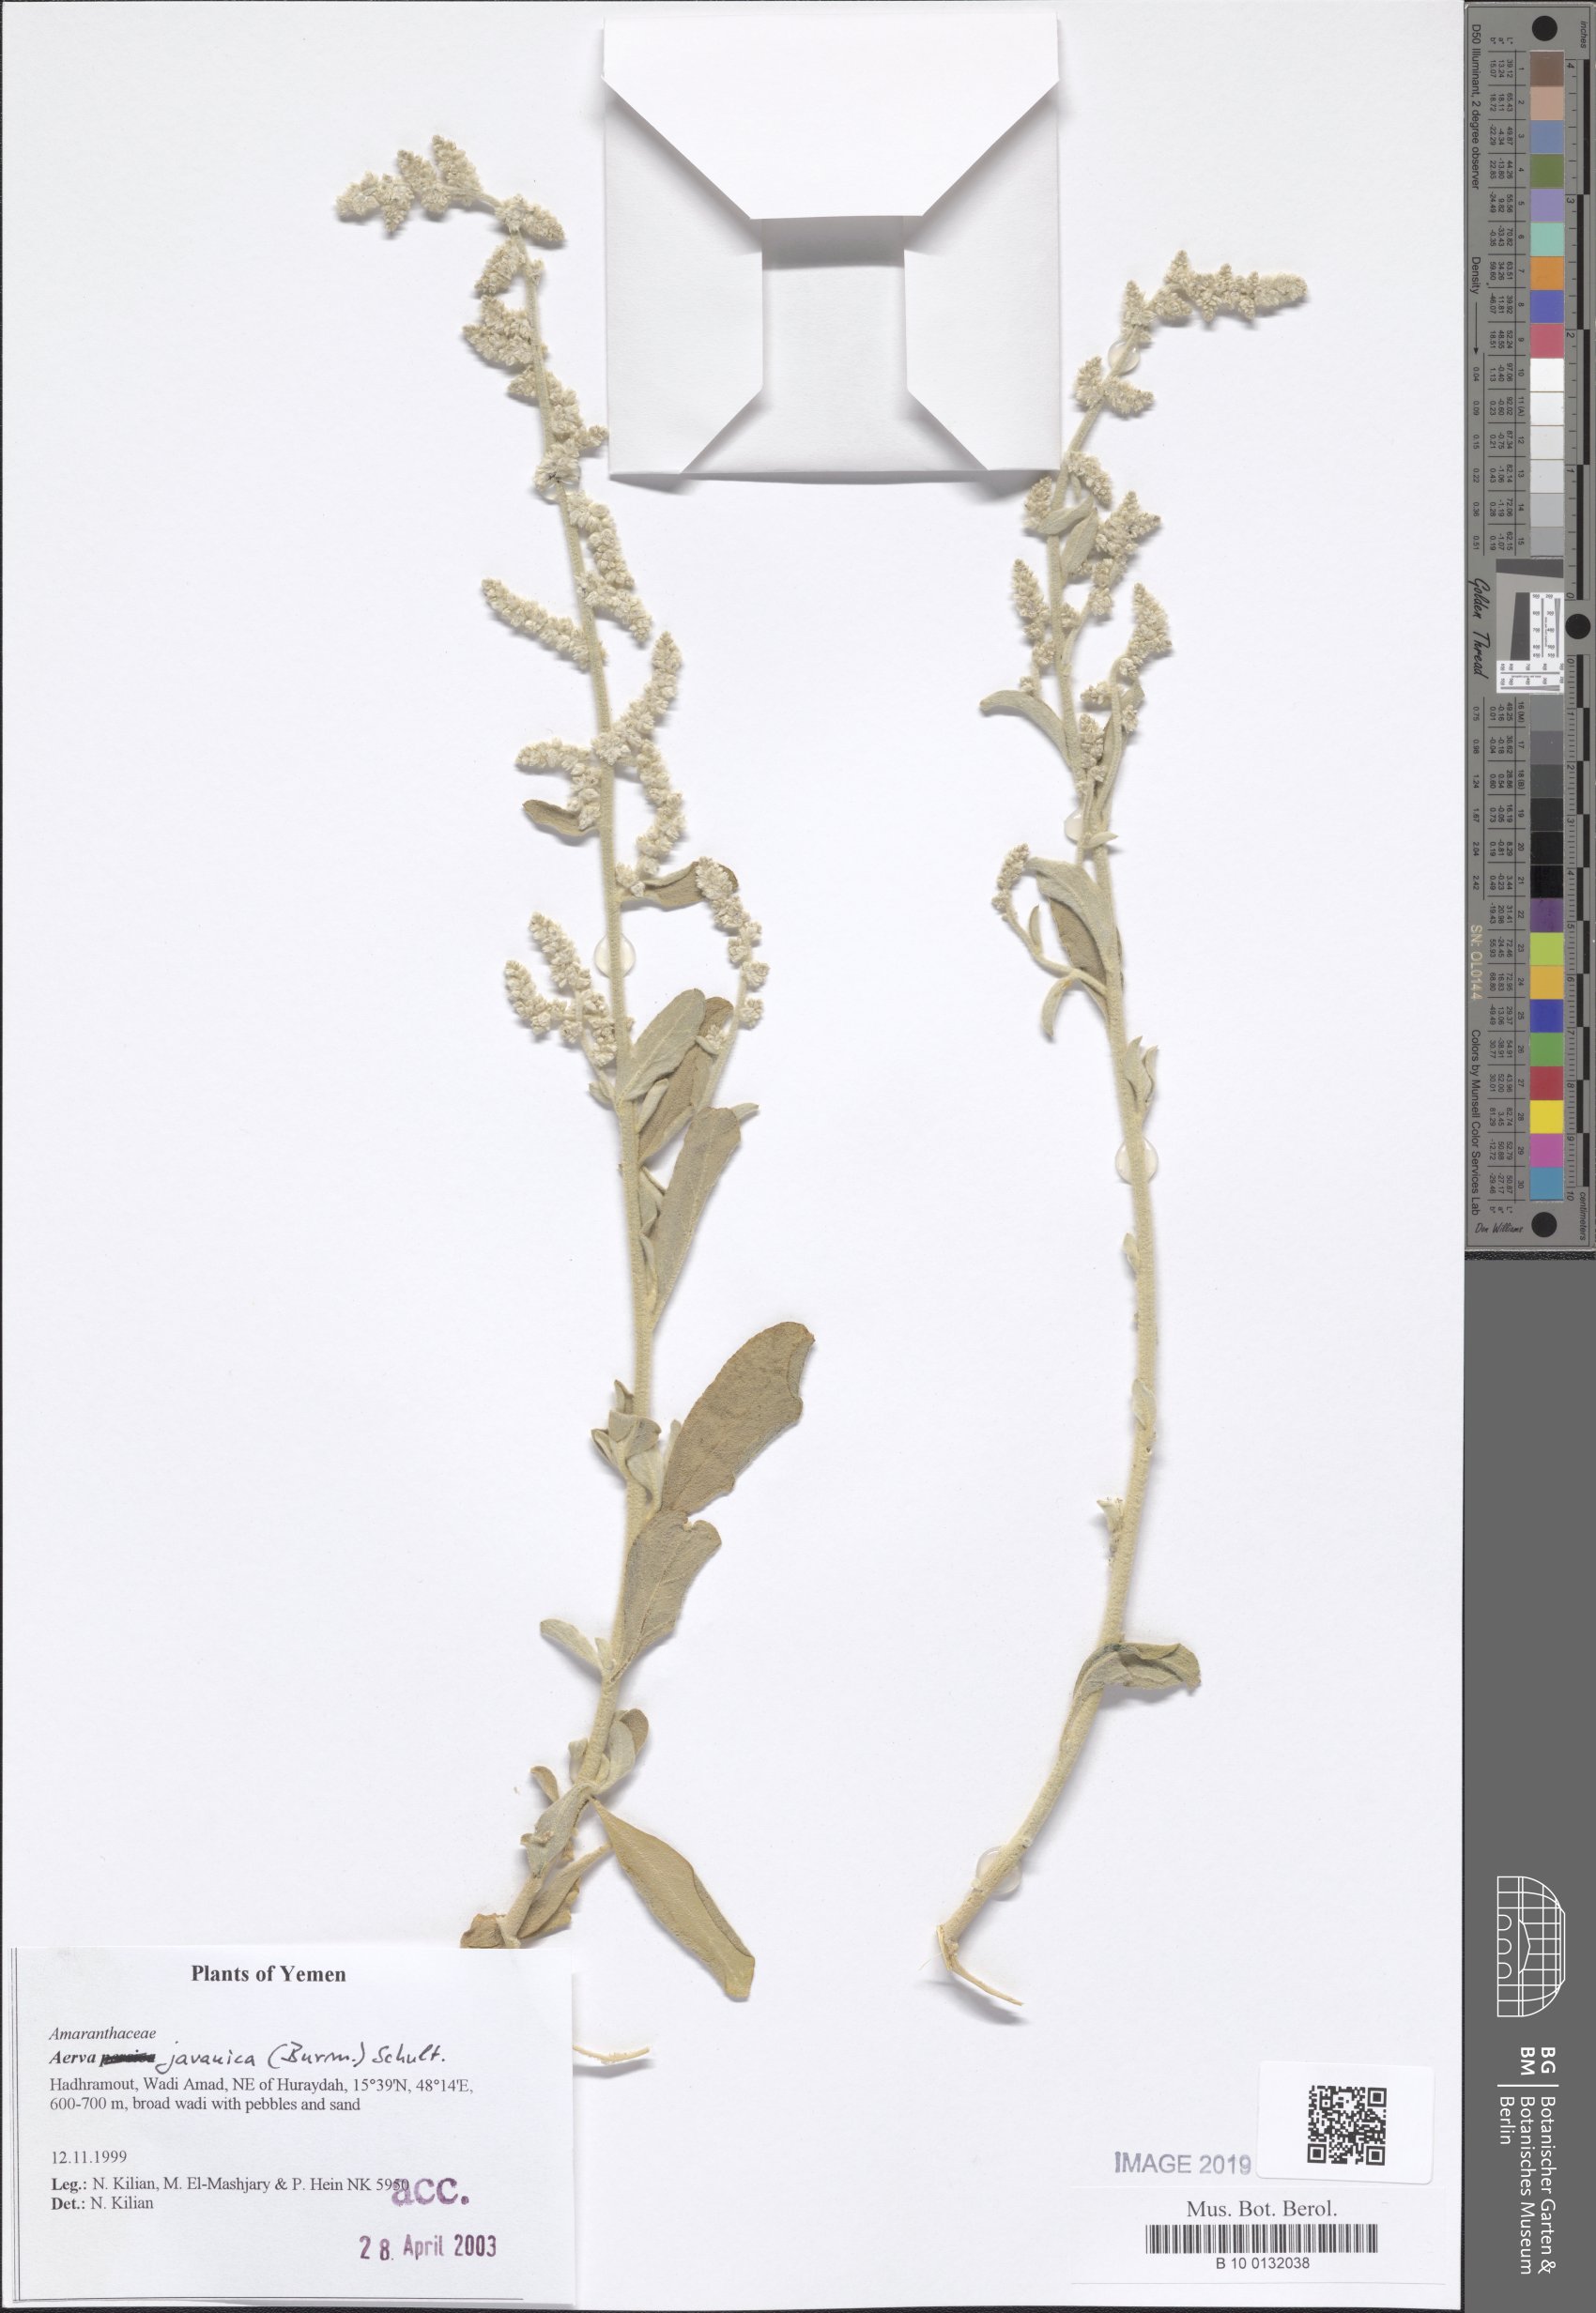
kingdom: Plantae
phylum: Tracheophyta
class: Magnoliopsida
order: Caryophyllales
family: Amaranthaceae
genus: Aerva
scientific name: Aerva javanica
